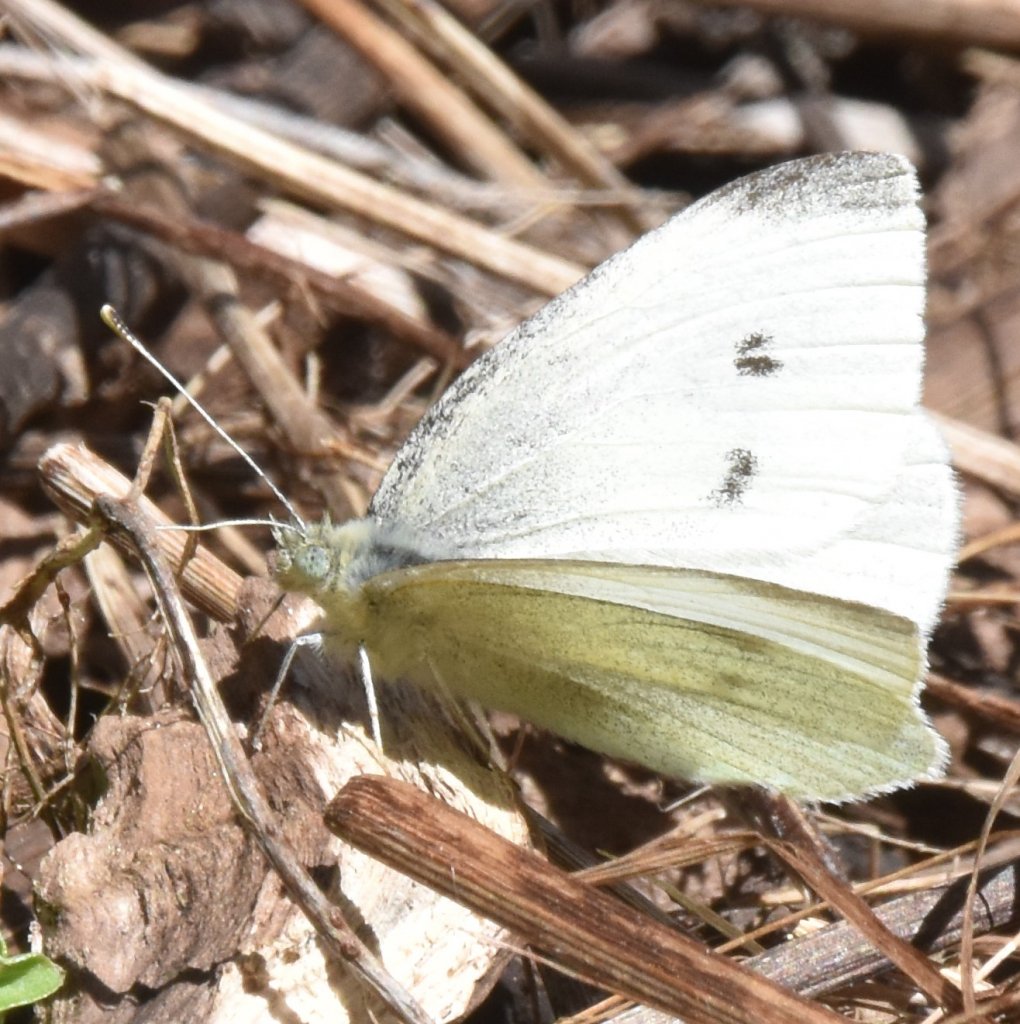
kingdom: Animalia
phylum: Arthropoda
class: Insecta
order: Lepidoptera
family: Pieridae
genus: Pieris
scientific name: Pieris rapae
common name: Cabbage White
